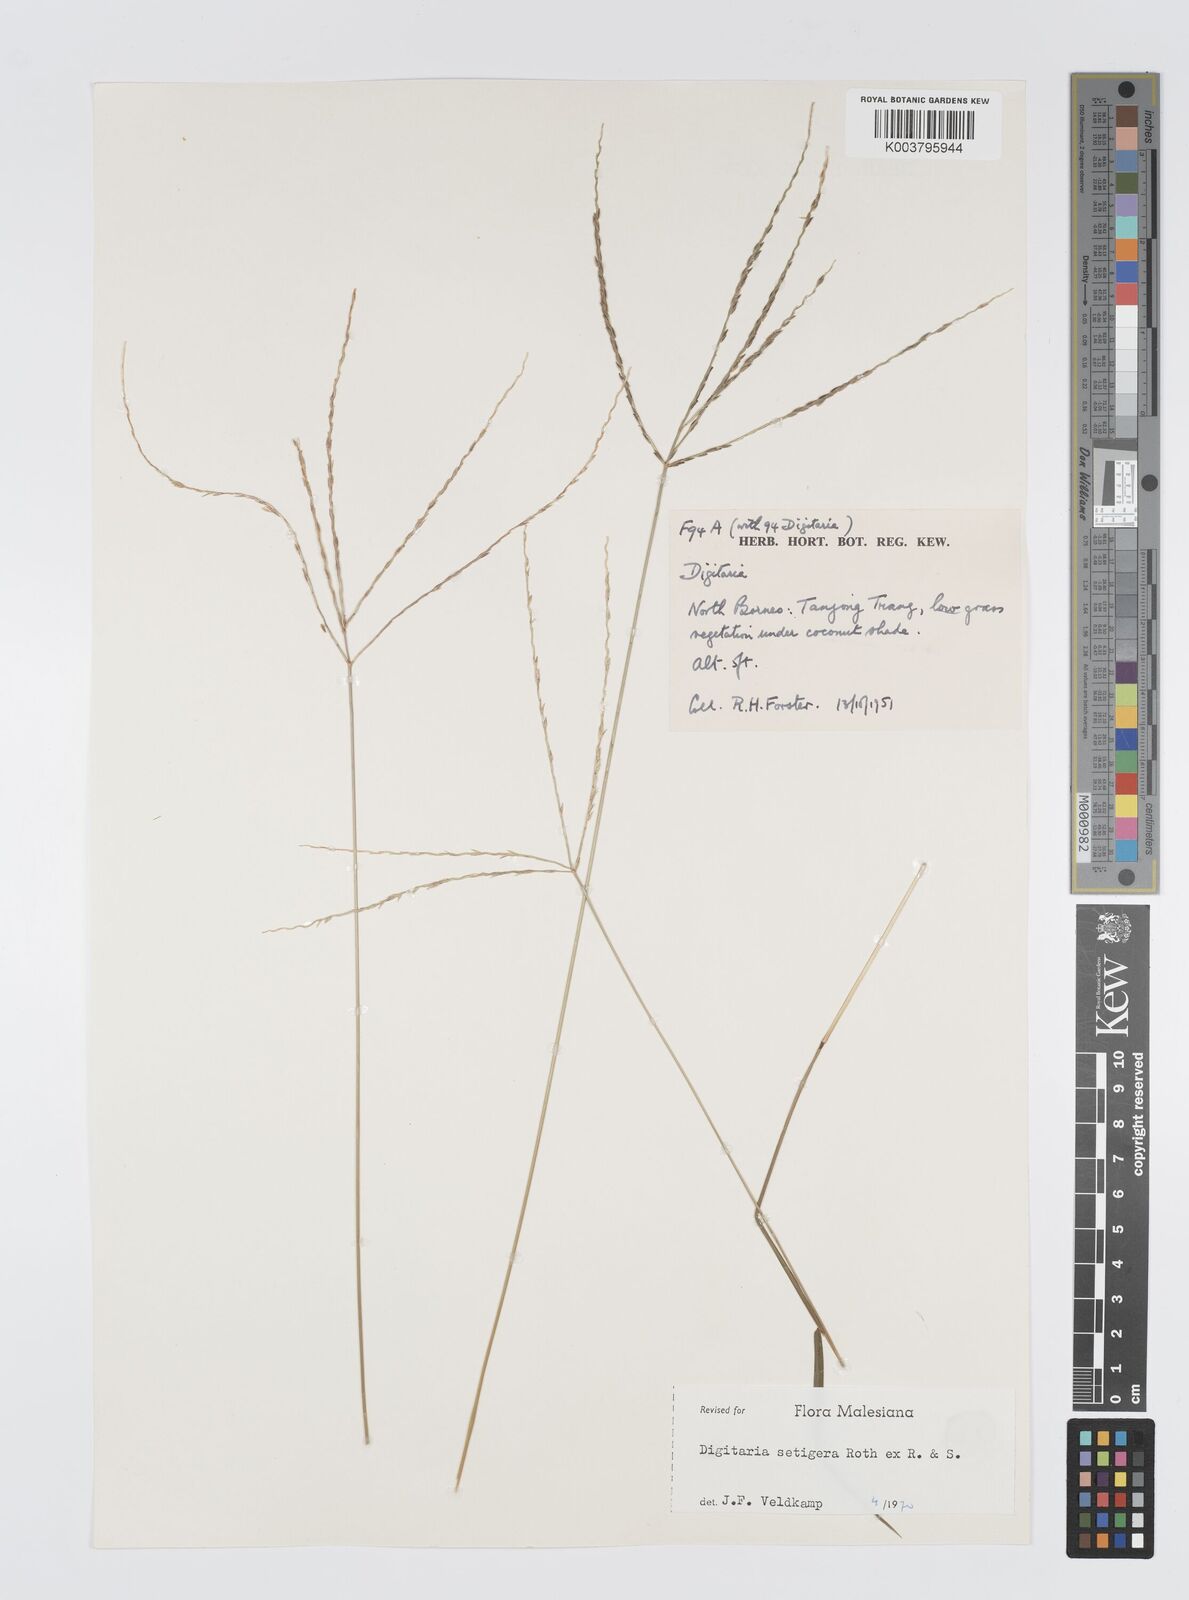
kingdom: Plantae
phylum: Tracheophyta
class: Liliopsida
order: Poales
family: Poaceae
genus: Digitaria
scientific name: Digitaria setigera
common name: East indian crabgrass
